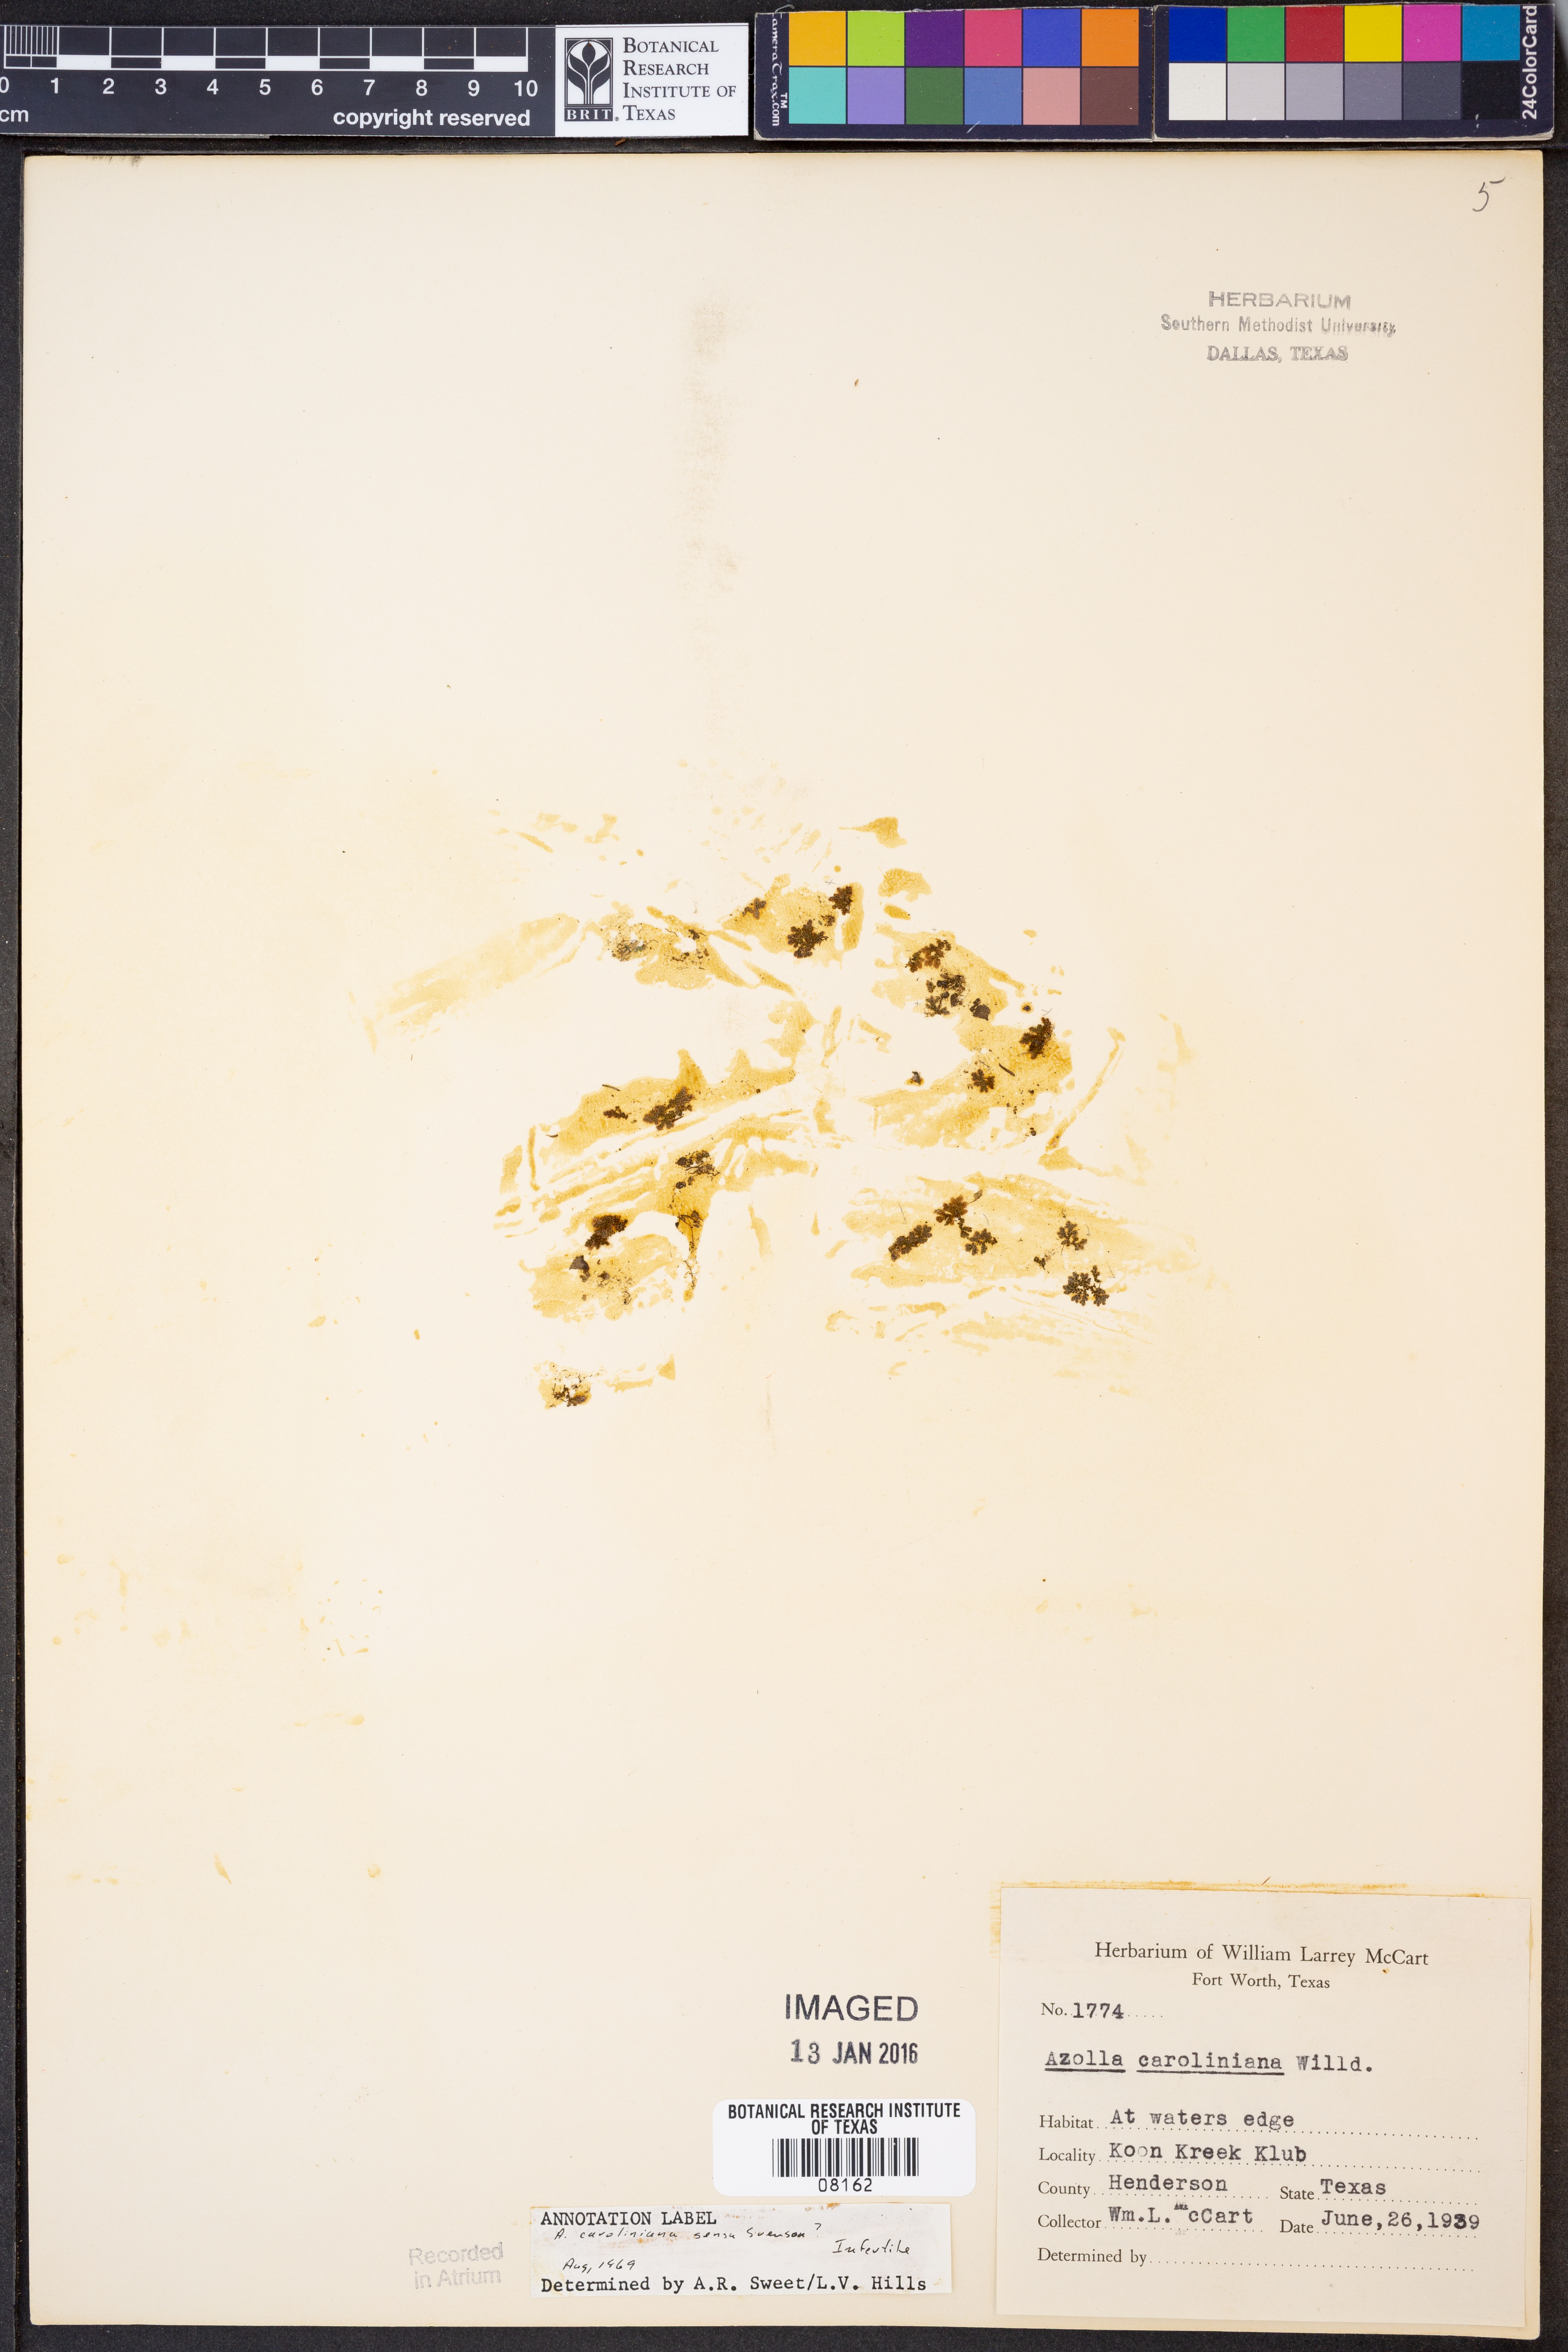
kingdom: Plantae
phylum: Tracheophyta
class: Polypodiopsida
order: Salviniales
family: Salviniaceae
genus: Azolla
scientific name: Azolla caroliniana
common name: Carolina mosquitofern
